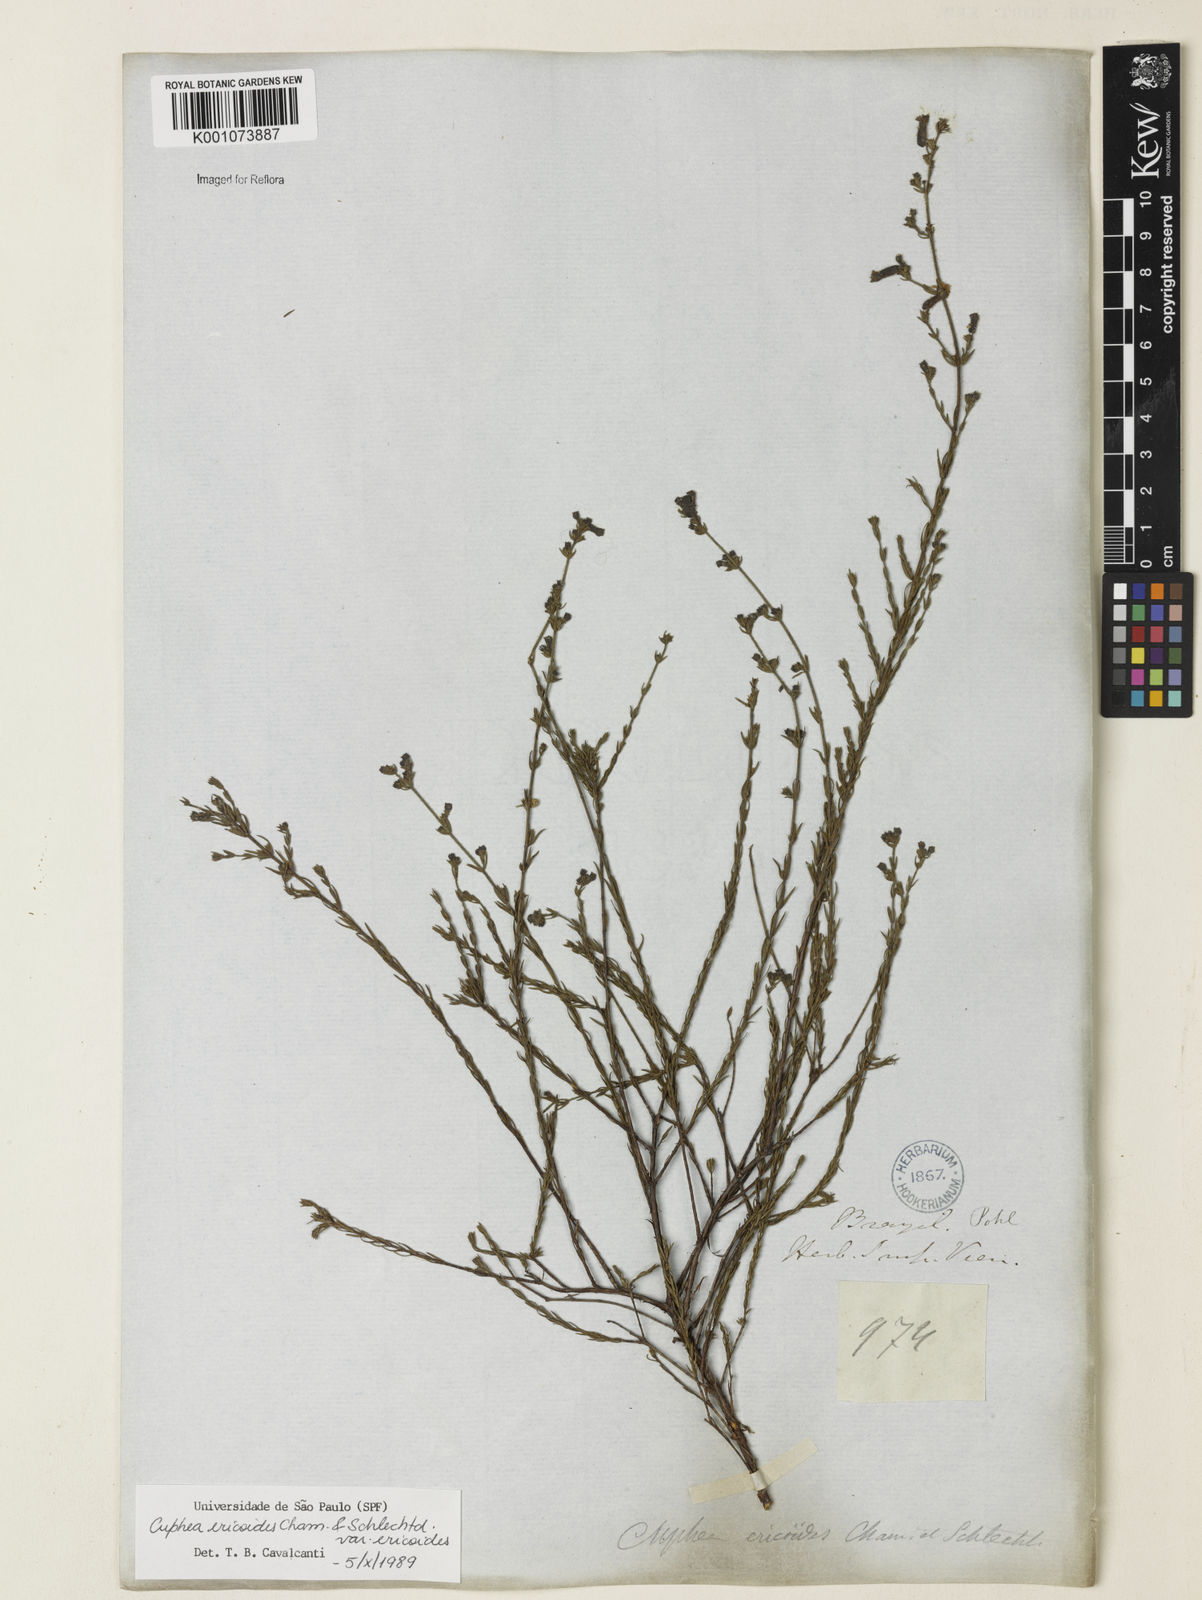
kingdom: Plantae
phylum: Tracheophyta
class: Magnoliopsida
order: Myrtales
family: Lythraceae
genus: Cuphea
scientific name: Cuphea ericoides
